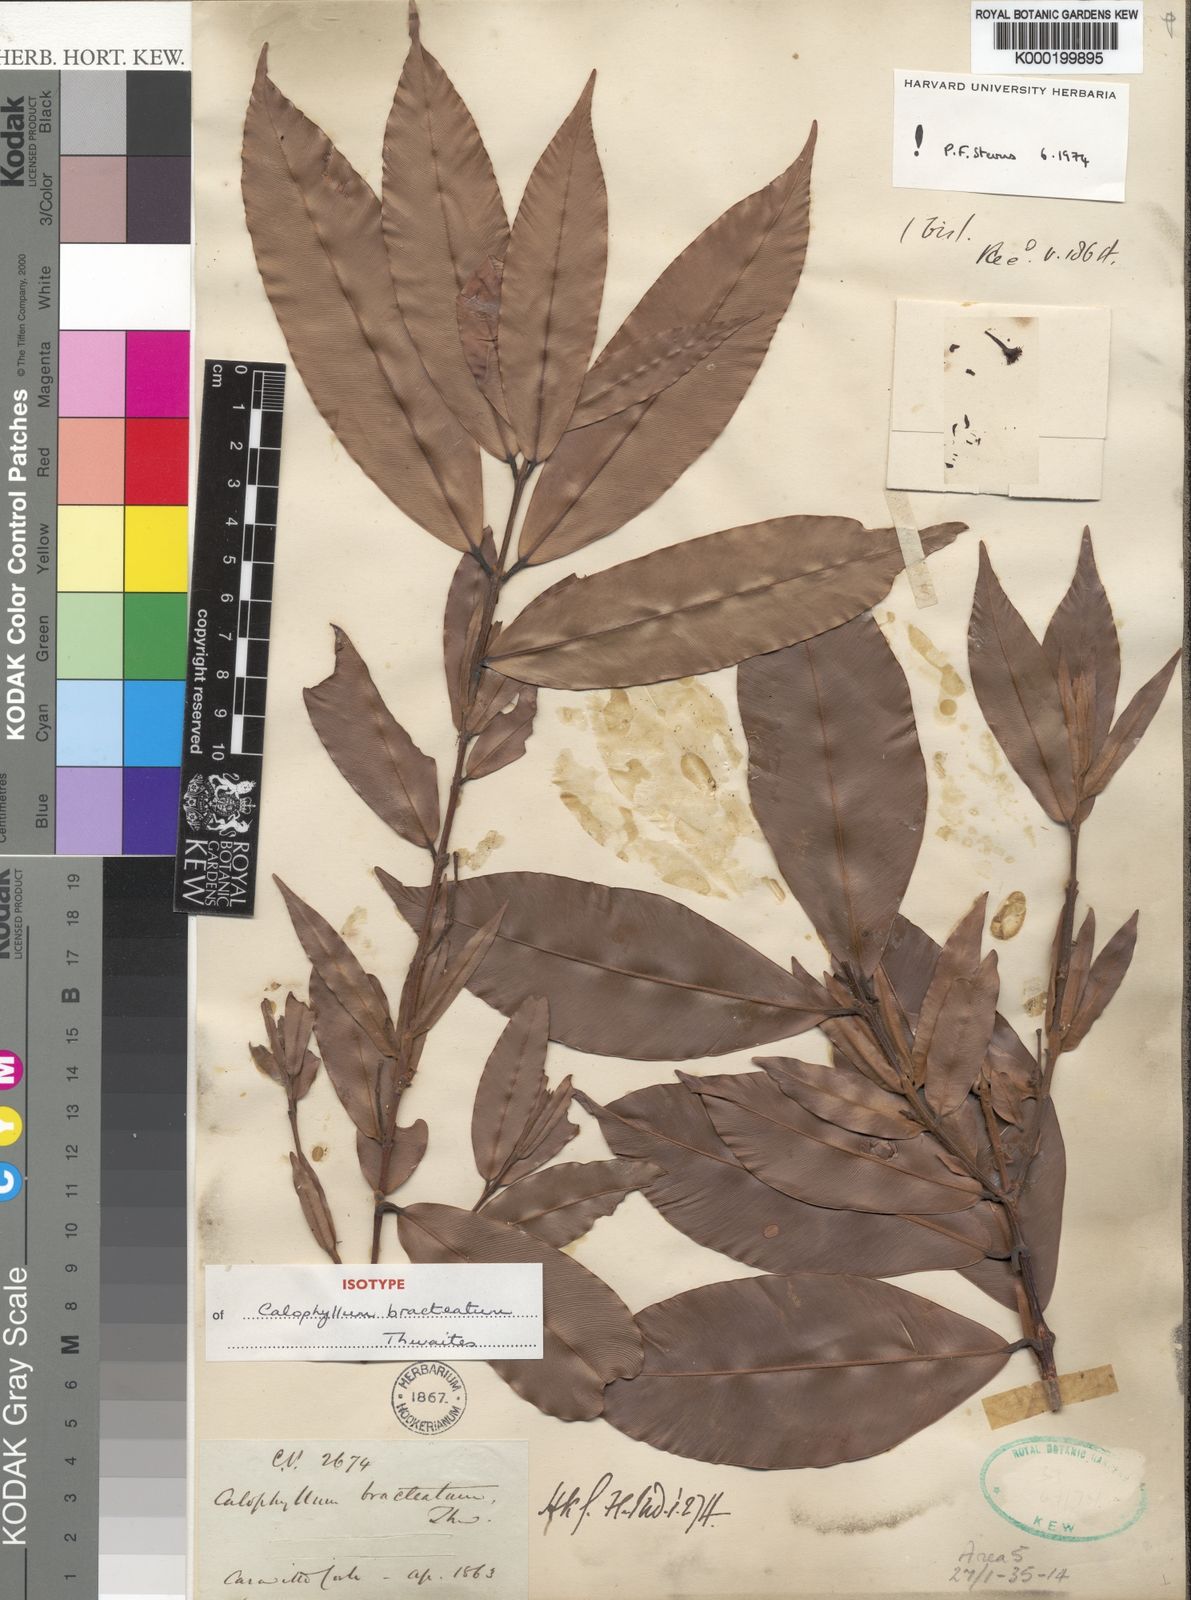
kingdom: Plantae
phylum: Tracheophyta
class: Magnoliopsida
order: Malpighiales
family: Calophyllaceae
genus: Calophyllum
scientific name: Calophyllum bracteatum
